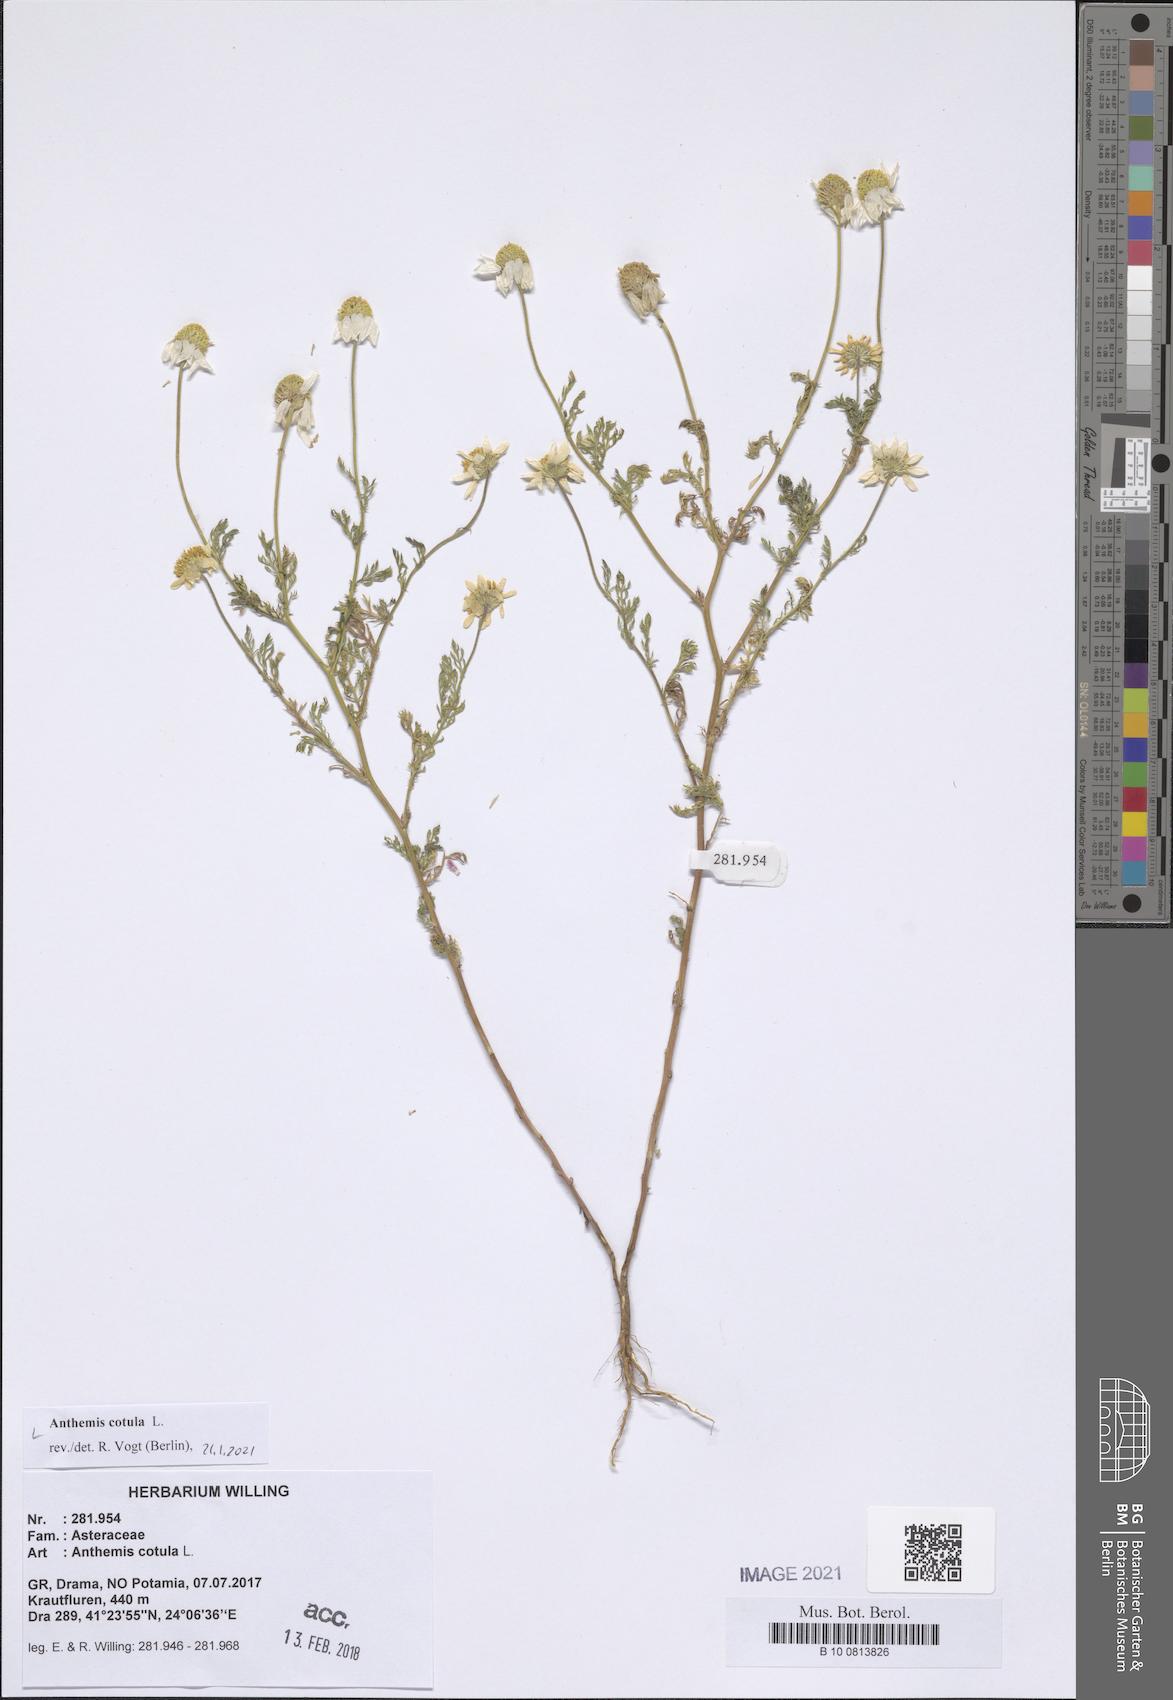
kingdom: Plantae
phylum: Tracheophyta
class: Magnoliopsida
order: Asterales
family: Asteraceae
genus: Anthemis
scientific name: Anthemis cotula
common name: Stinking chamomile
